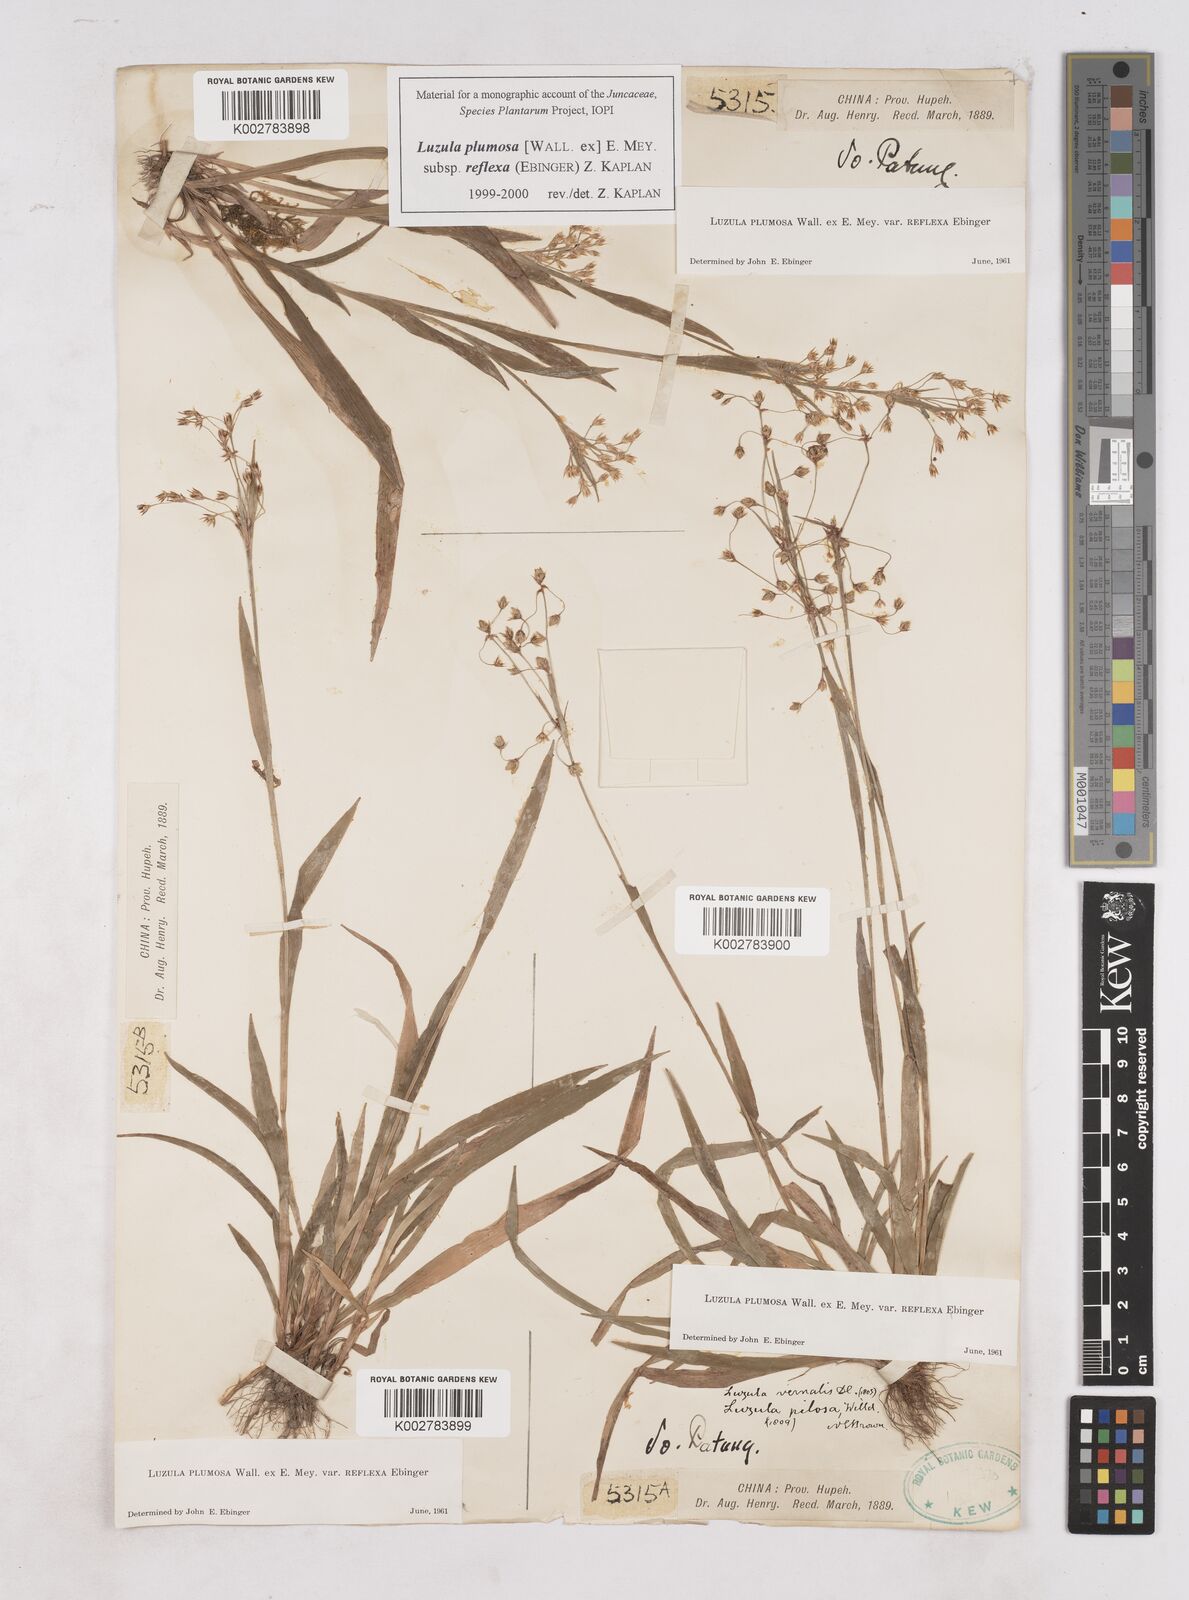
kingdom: Plantae
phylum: Tracheophyta
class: Liliopsida
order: Poales
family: Juncaceae
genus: Luzula
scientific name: Luzula plumosa
